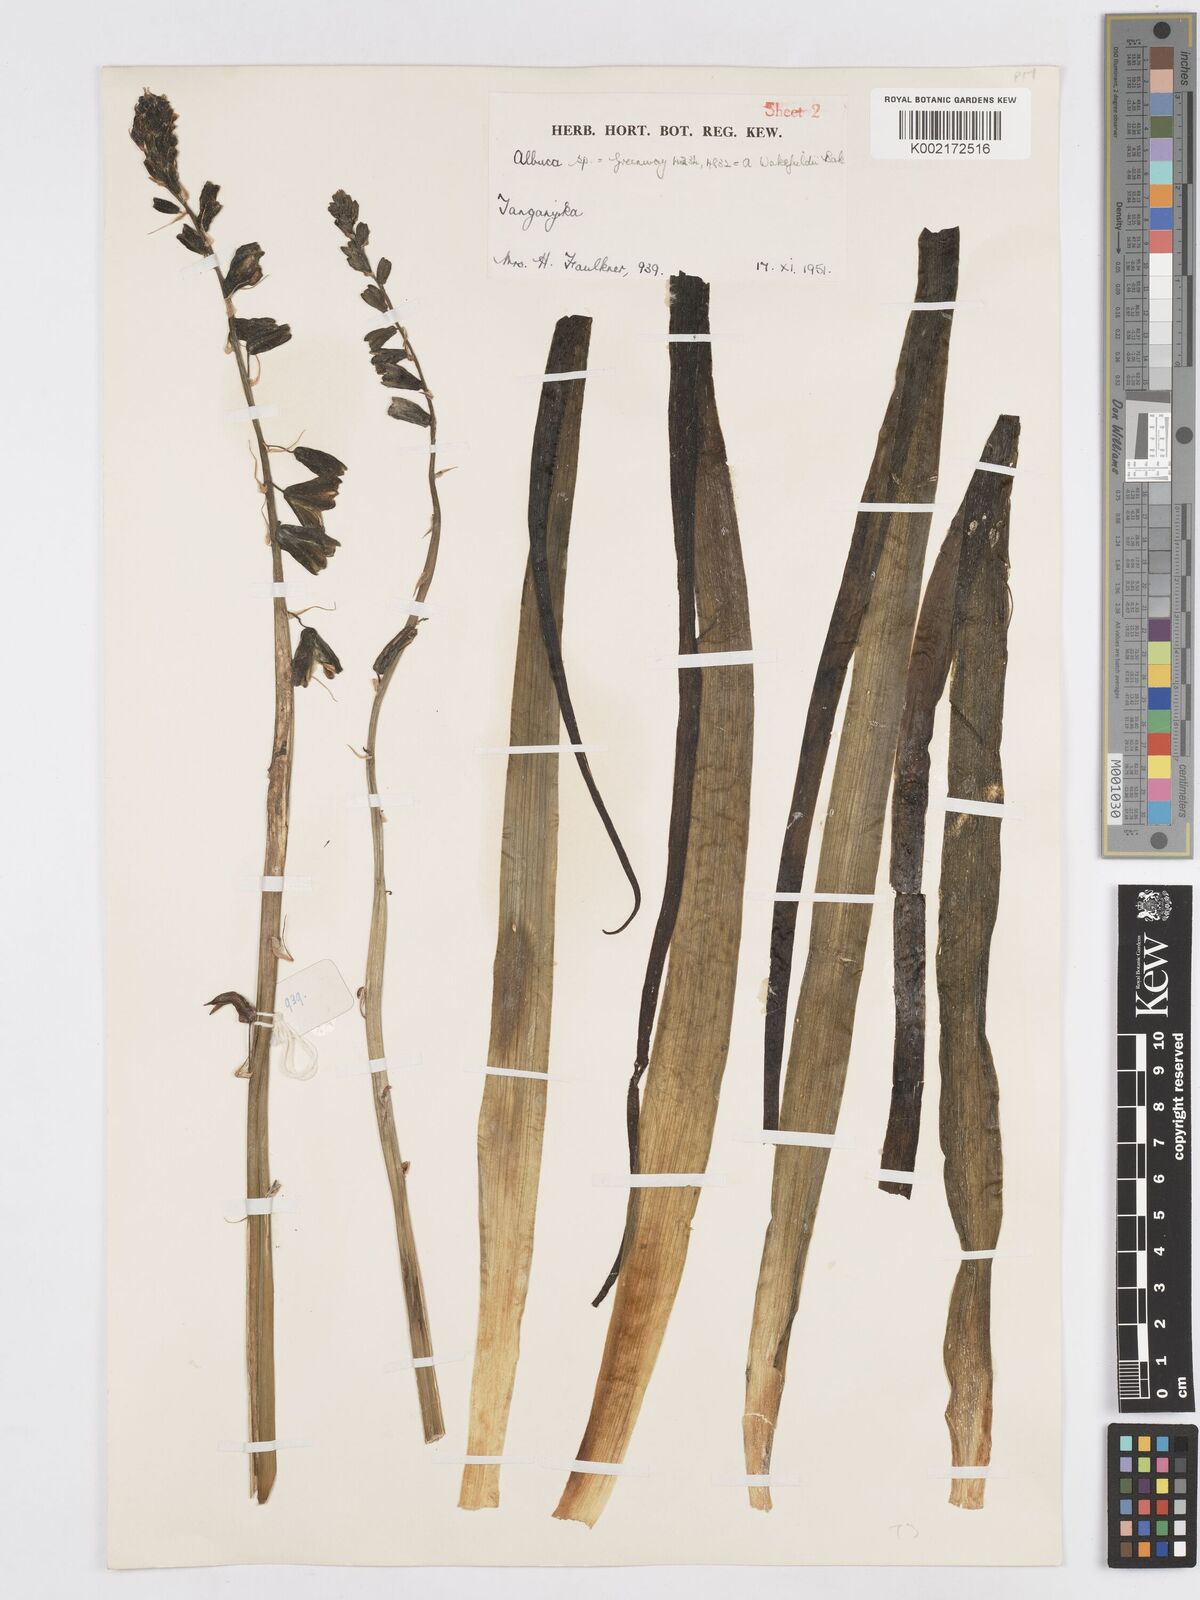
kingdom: Plantae
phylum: Tracheophyta
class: Liliopsida
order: Asparagales
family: Asparagaceae
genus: Albuca
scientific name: Albuca abyssinica
